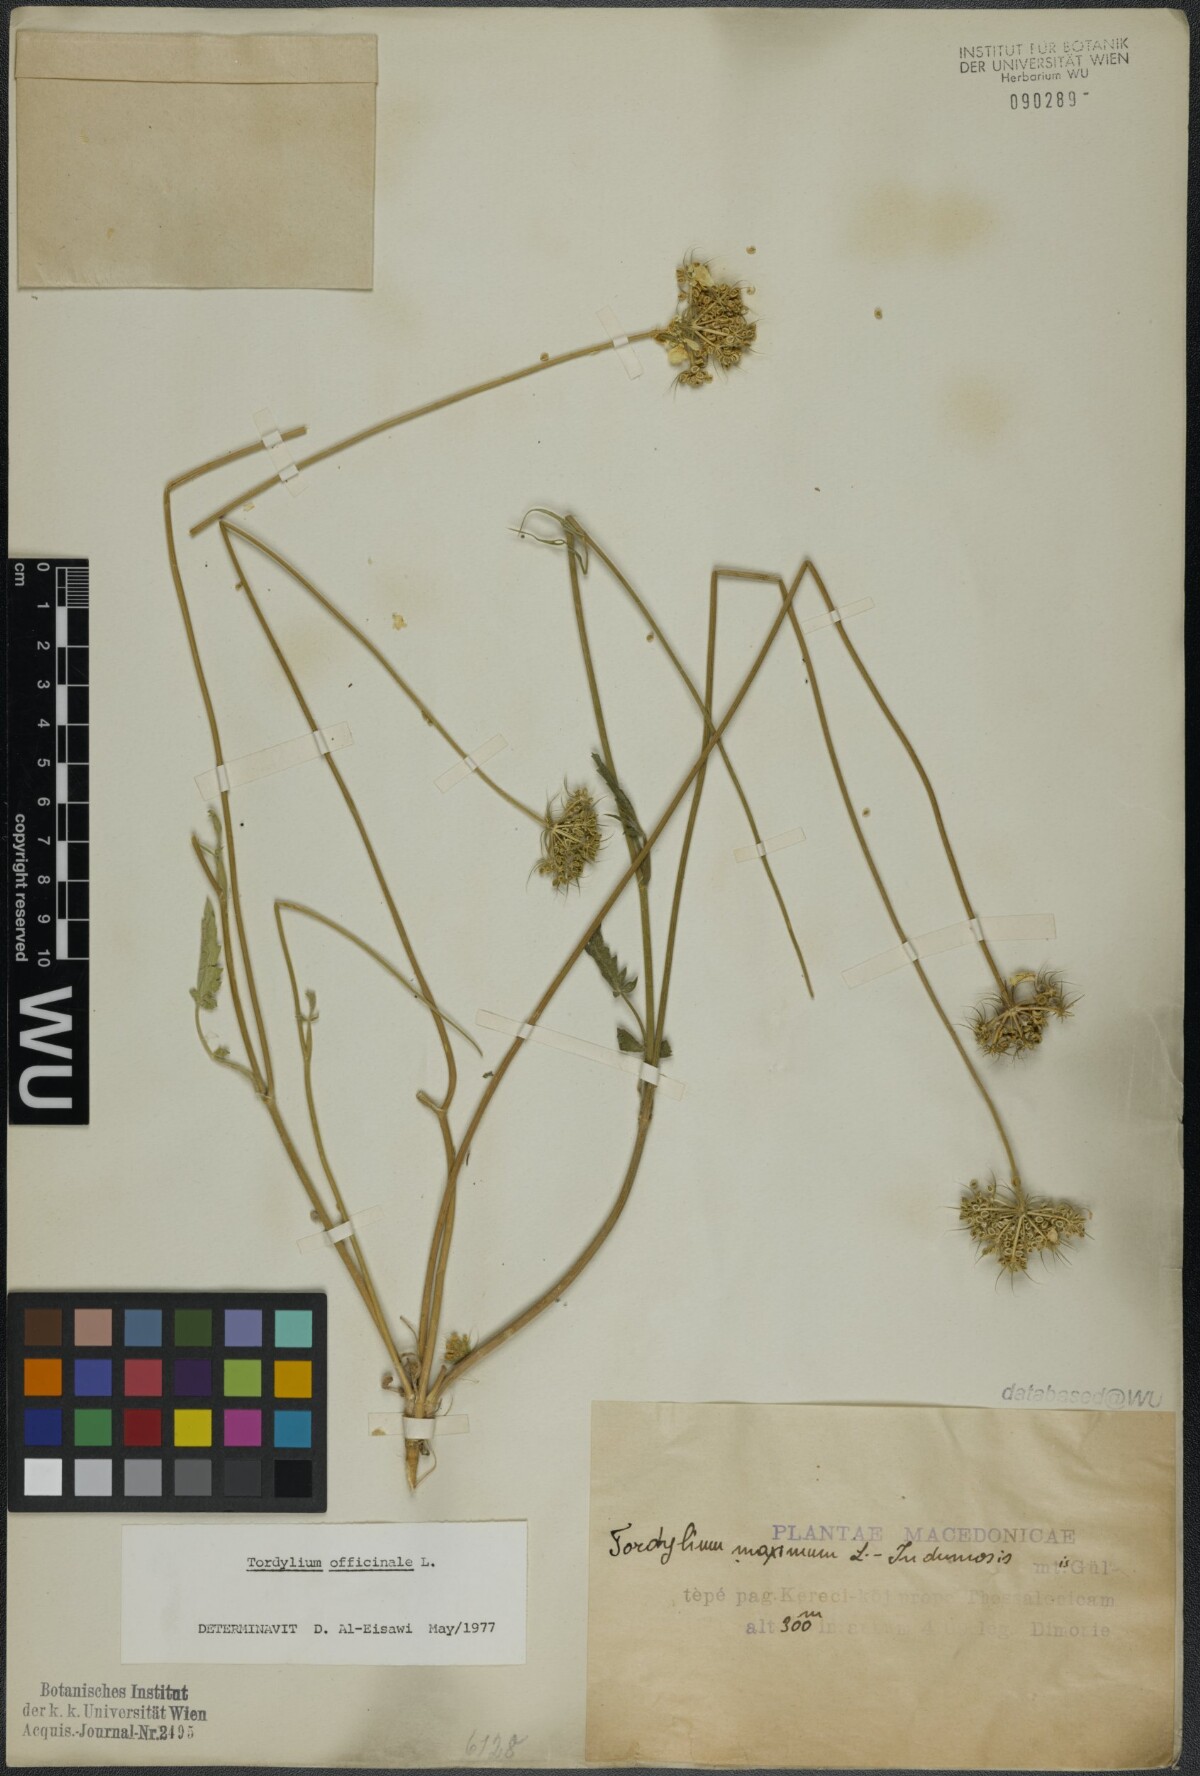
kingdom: Plantae
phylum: Tracheophyta
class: Magnoliopsida
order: Apiales
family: Apiaceae
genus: Tordylium
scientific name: Tordylium officinale
